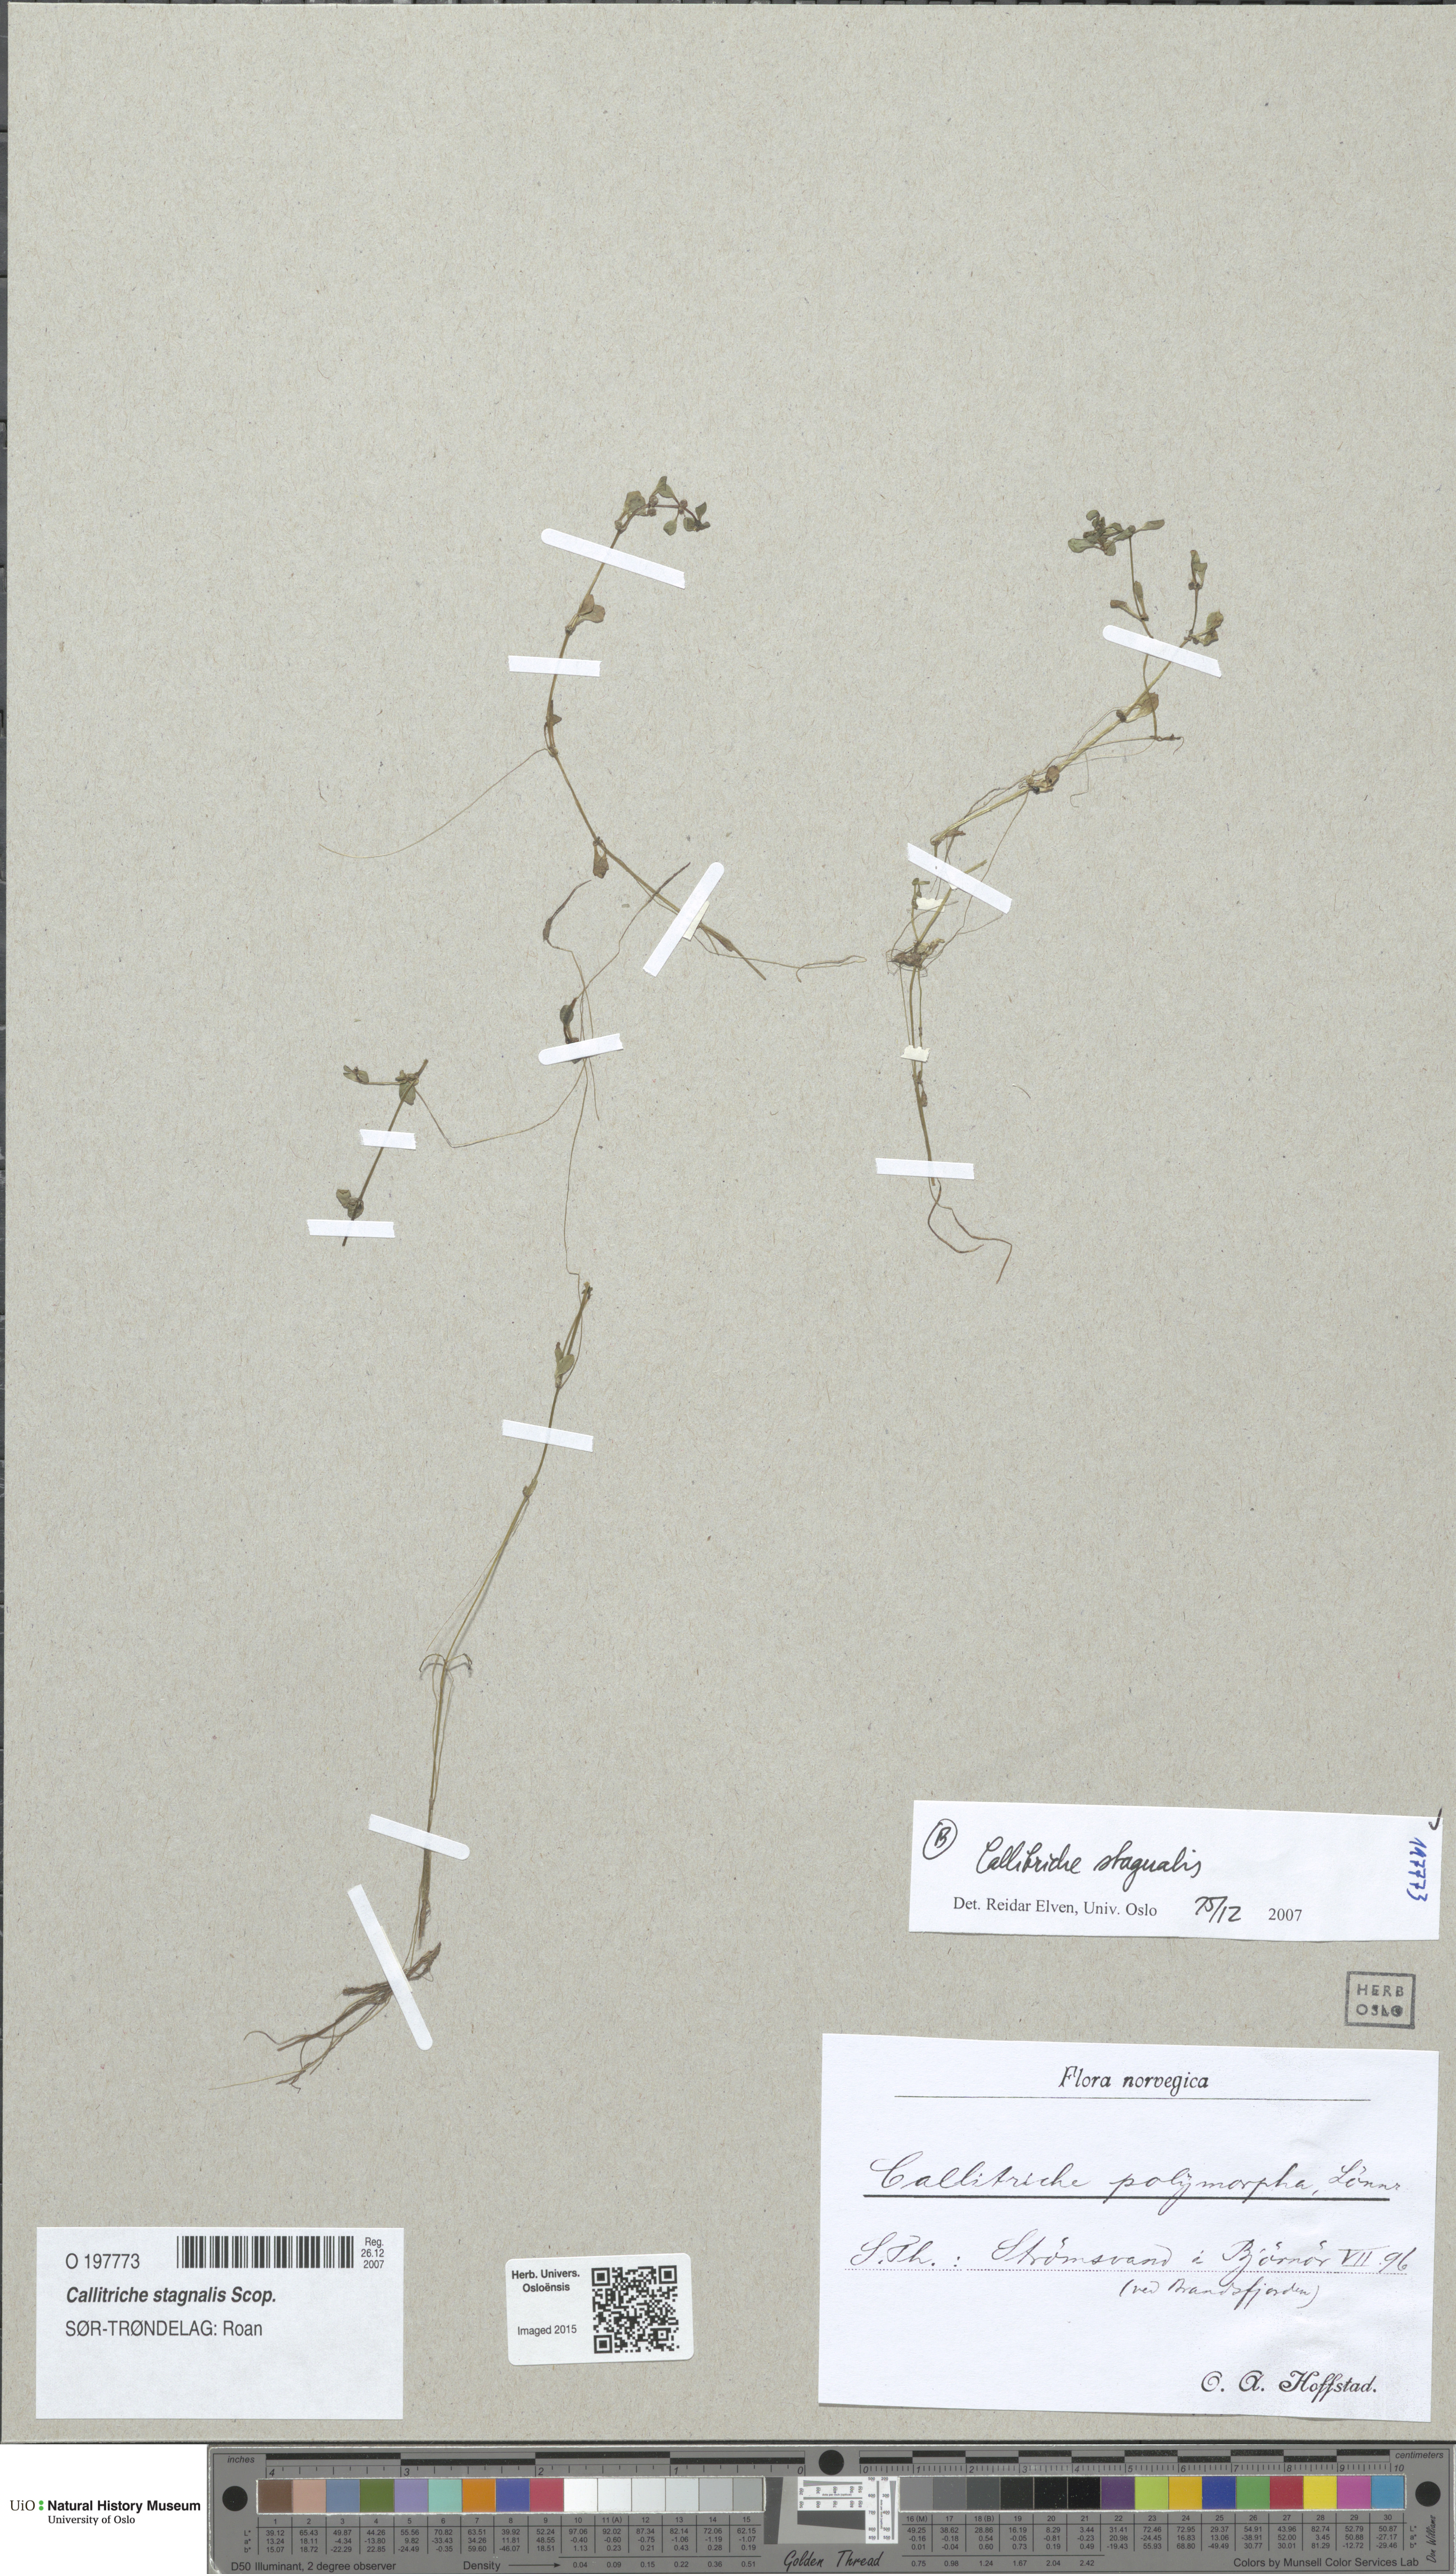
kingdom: Plantae
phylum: Tracheophyta
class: Magnoliopsida
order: Lamiales
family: Plantaginaceae
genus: Callitriche
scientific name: Callitriche stagnalis
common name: Common water-starwort
